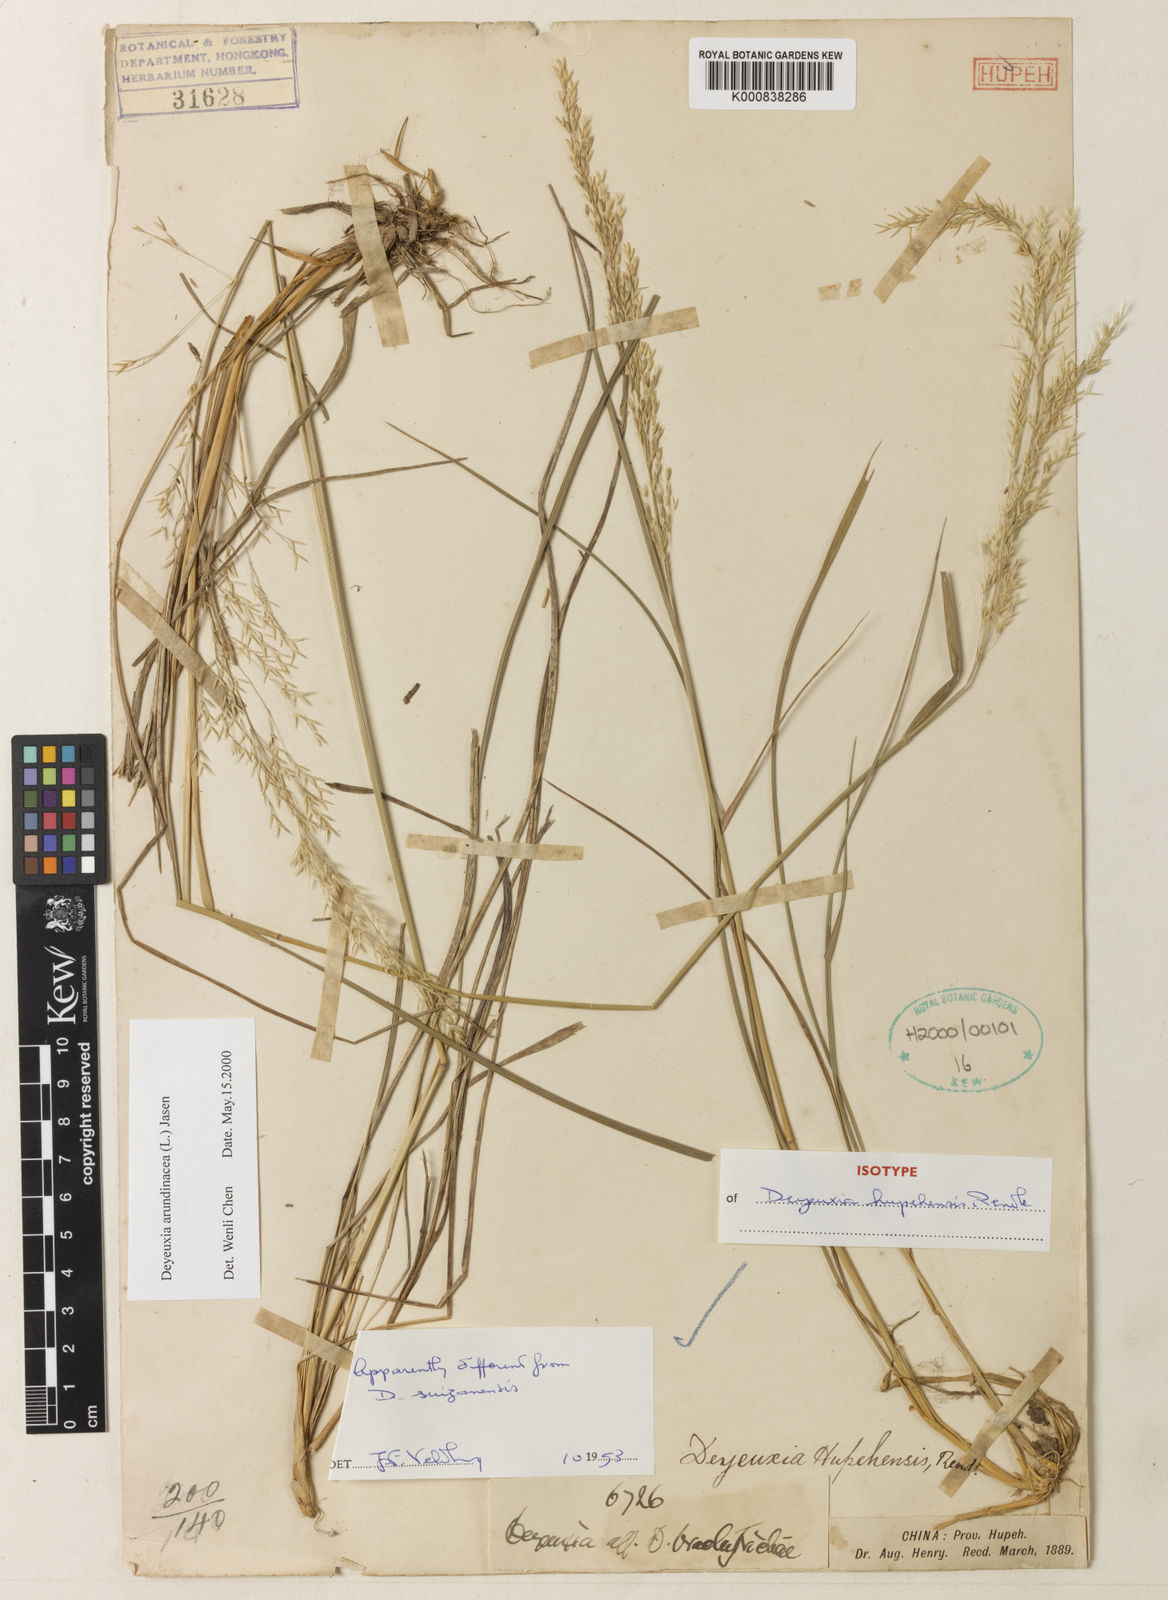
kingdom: Plantae
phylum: Tracheophyta
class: Liliopsida
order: Poales
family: Poaceae
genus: Calamagrostis
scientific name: Calamagrostis purpurascens
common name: Purple reedgrass
